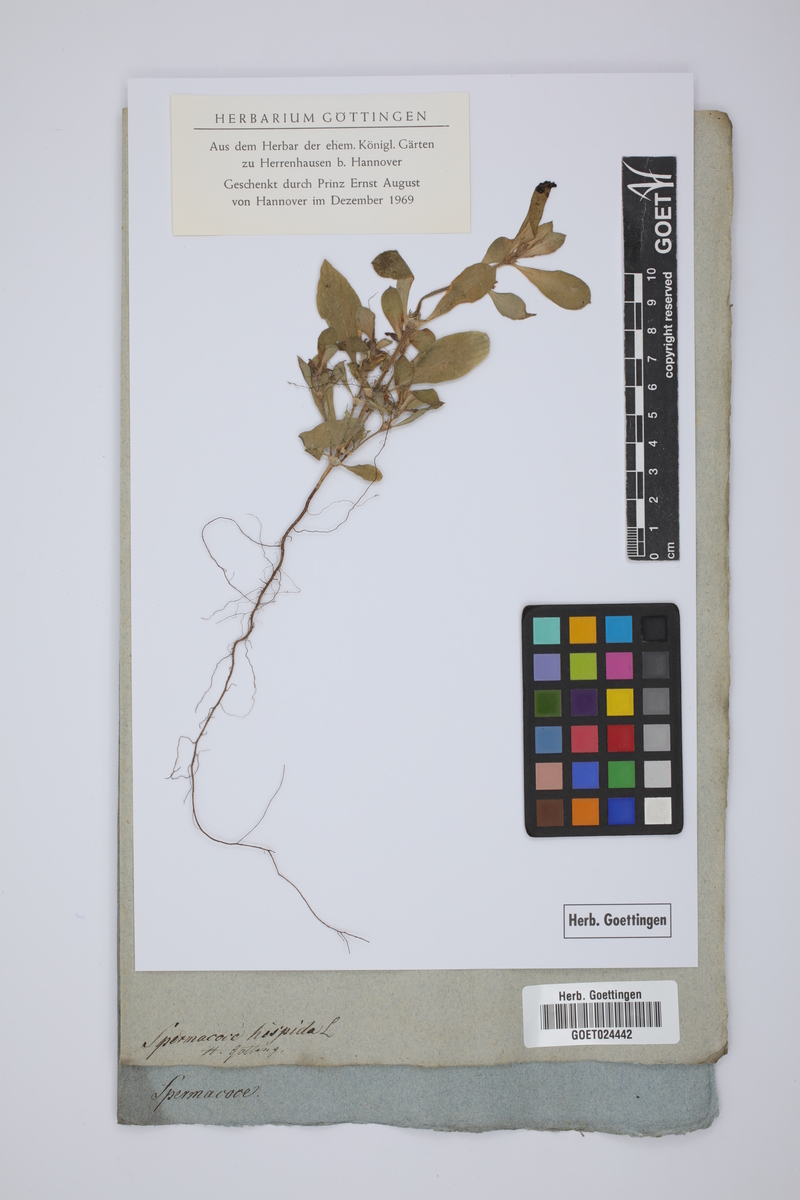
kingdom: Plantae
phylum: Tracheophyta
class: Magnoliopsida
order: Gentianales
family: Rubiaceae
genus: Spermacoce
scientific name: Spermacoce hispida
